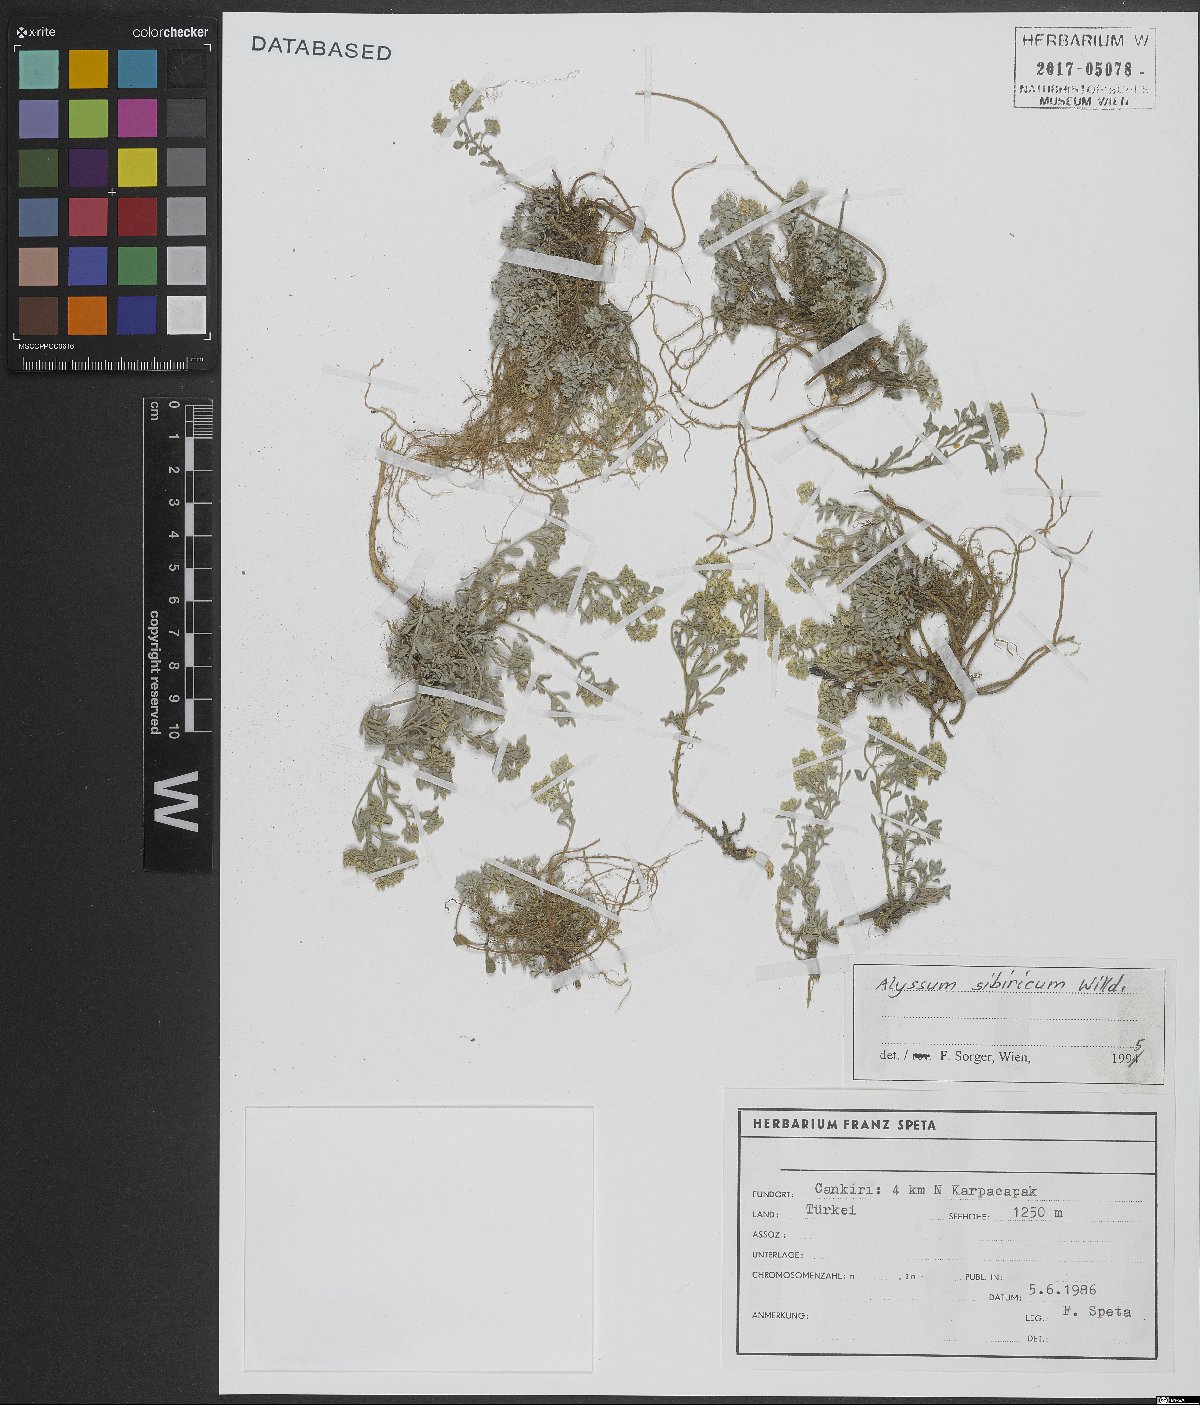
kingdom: Plantae
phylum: Tracheophyta
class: Magnoliopsida
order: Brassicales
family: Brassicaceae
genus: Odontarrhena
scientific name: Odontarrhena sibirica
